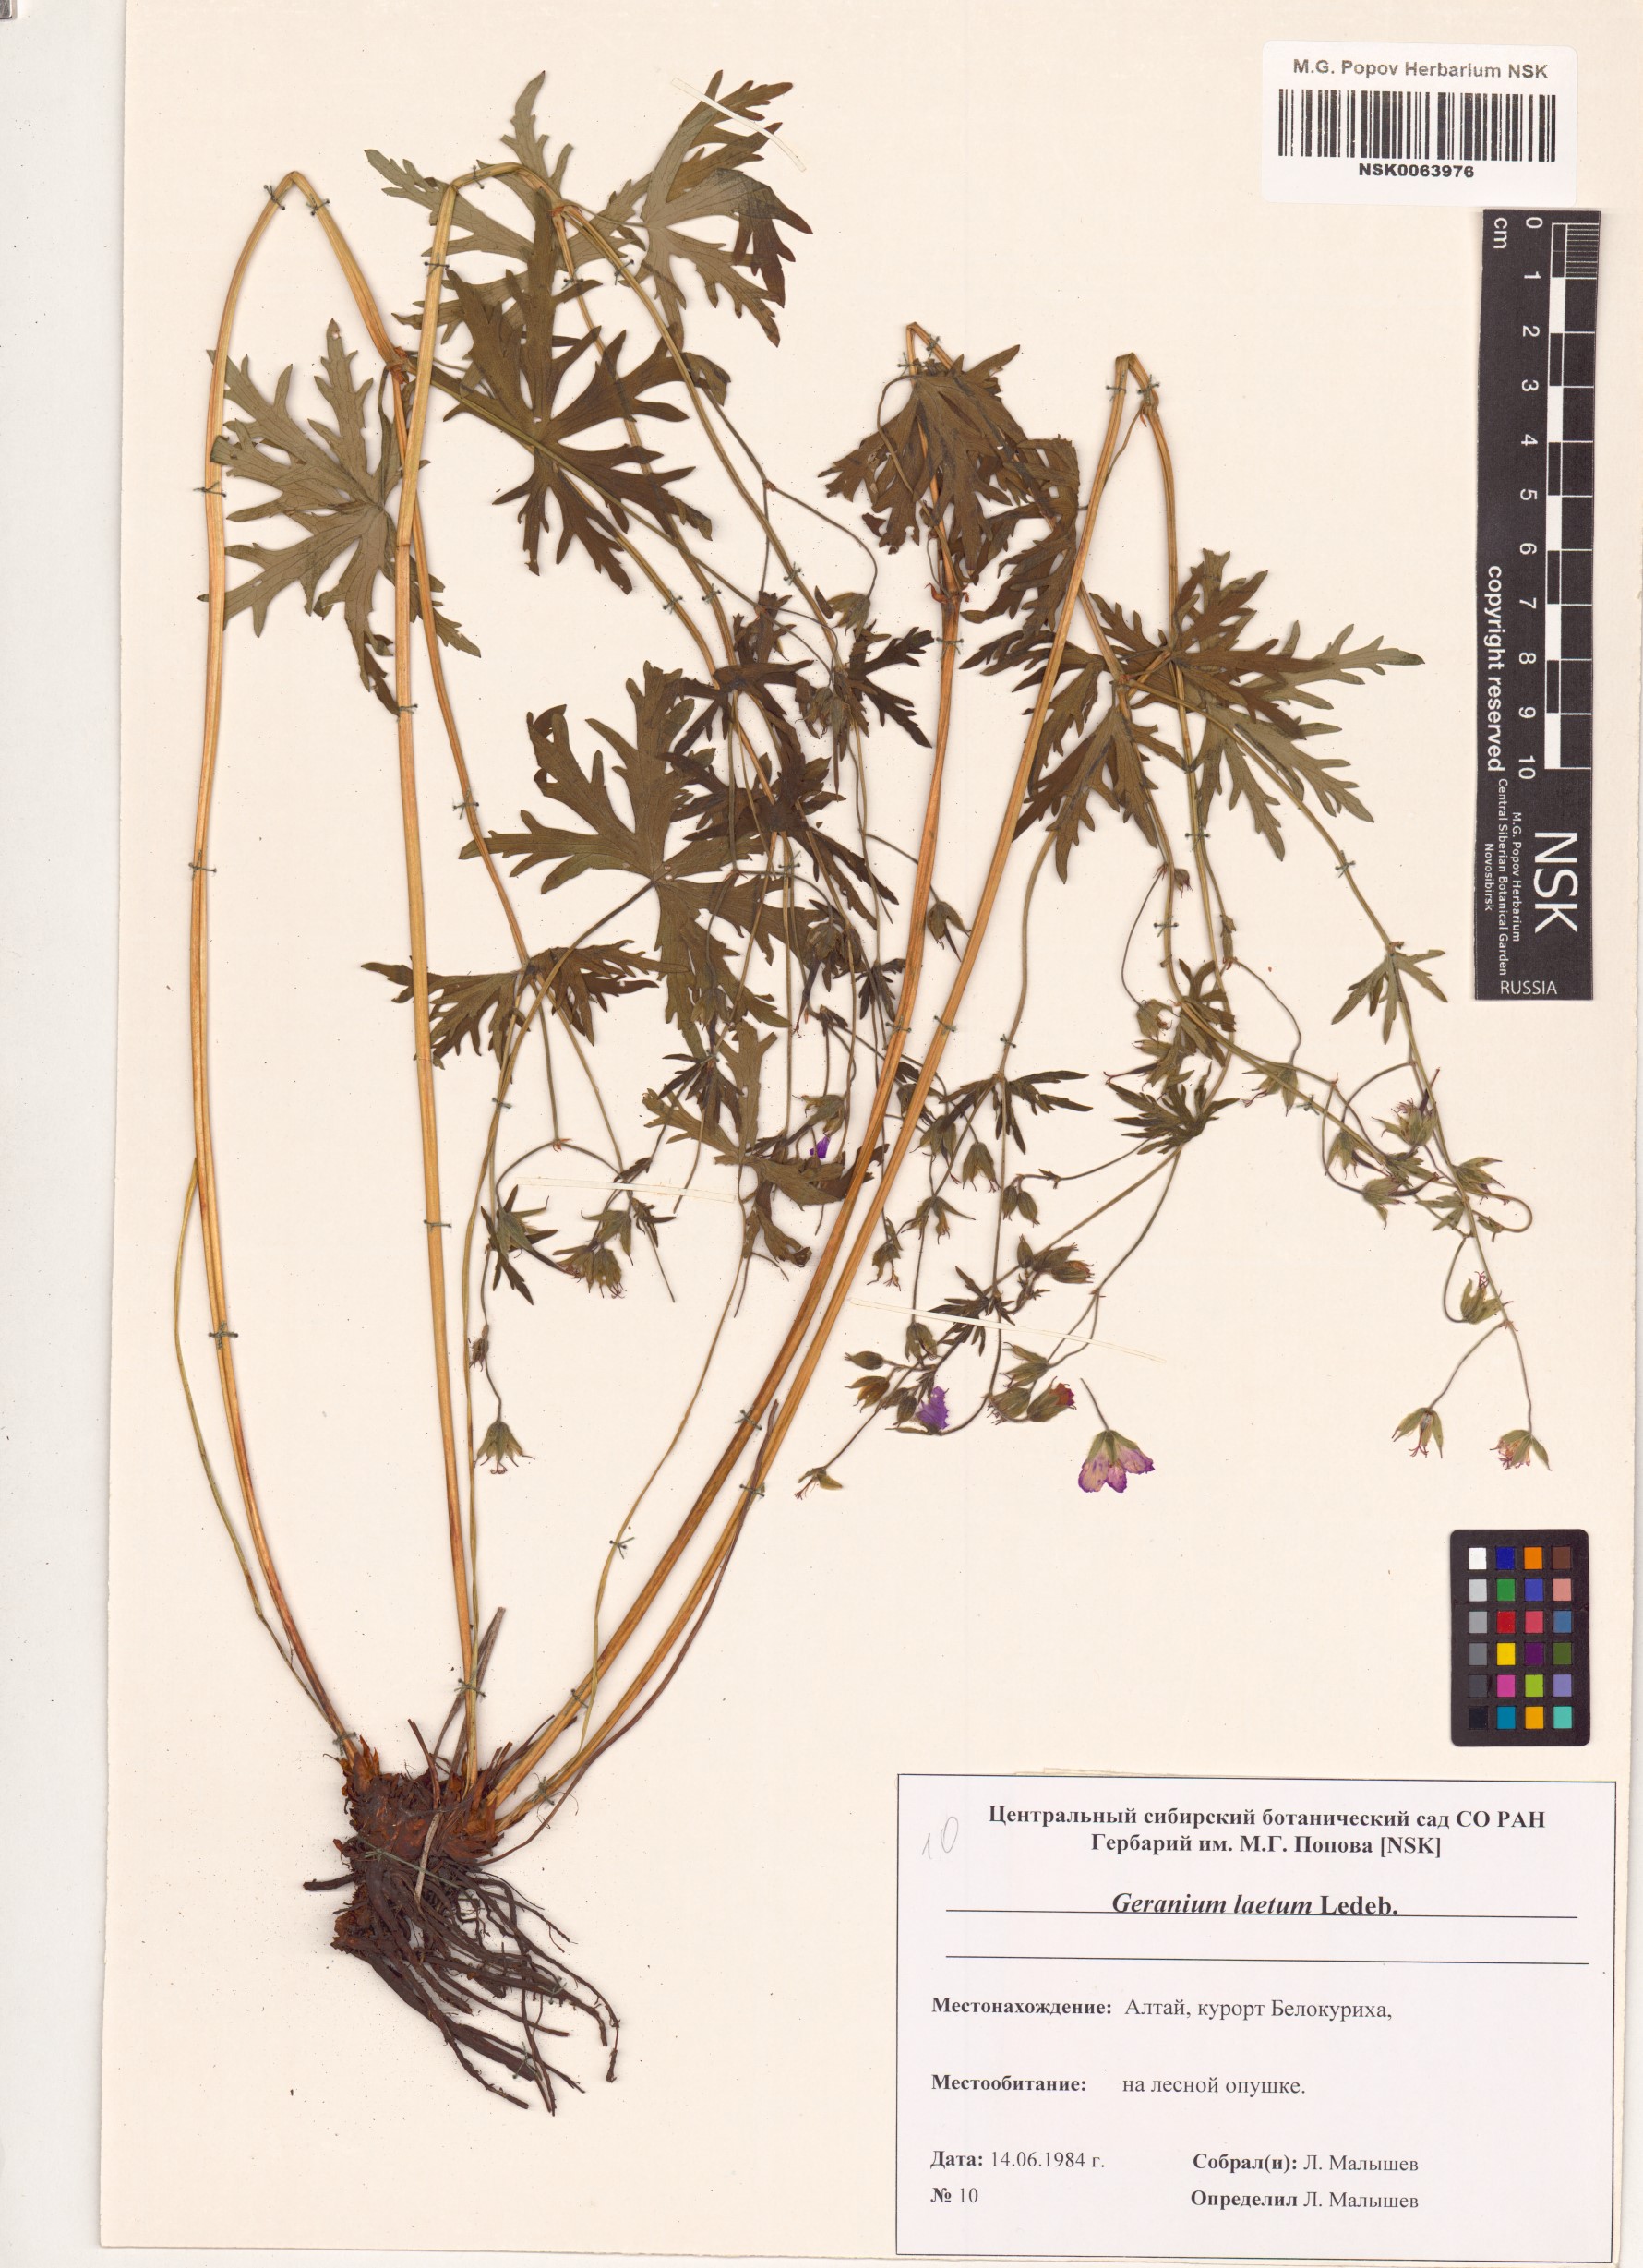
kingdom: Plantae
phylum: Tracheophyta
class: Magnoliopsida
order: Geraniales
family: Geraniaceae
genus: Geranium
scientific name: Geranium pseudosibiricum
